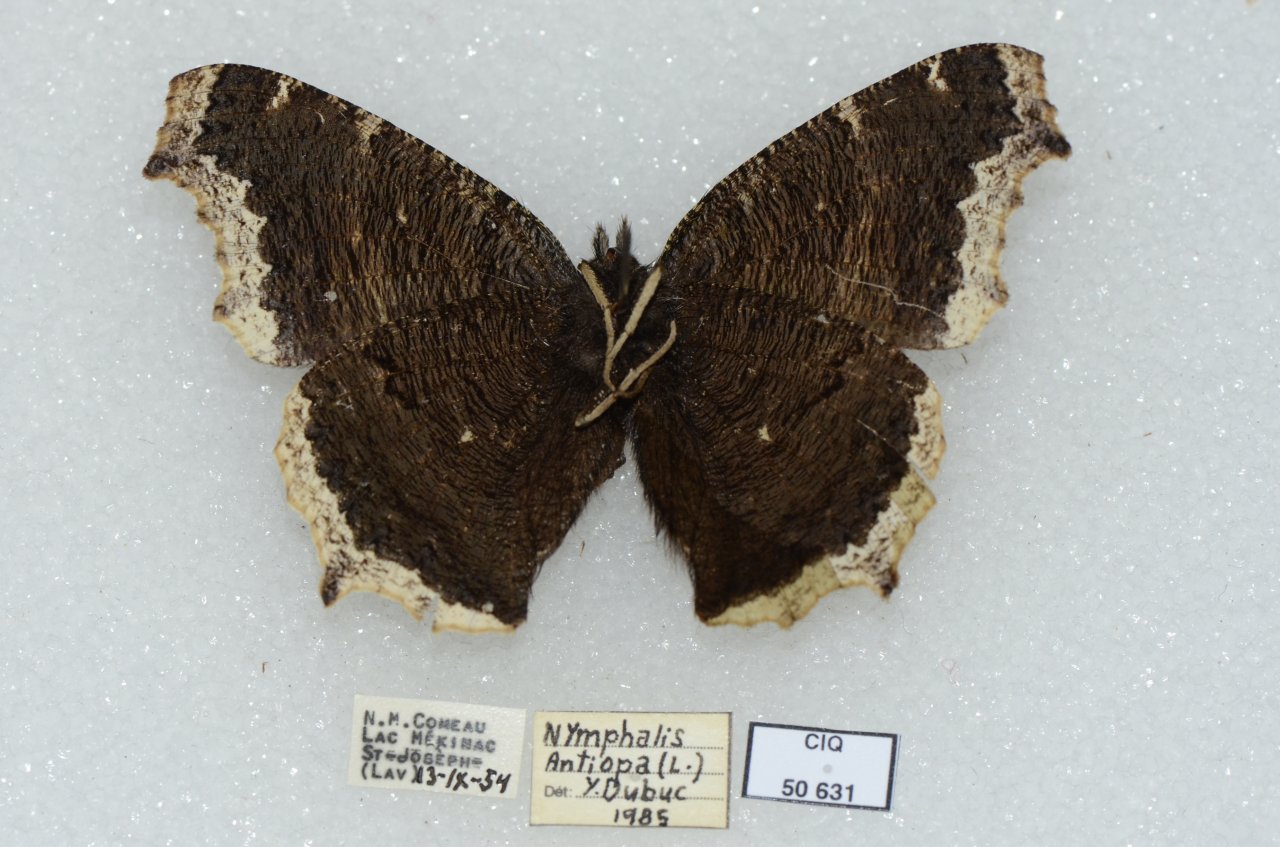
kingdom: Animalia
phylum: Arthropoda
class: Insecta
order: Lepidoptera
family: Nymphalidae
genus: Nymphalis
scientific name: Nymphalis antiopa
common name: Mourning Cloak
